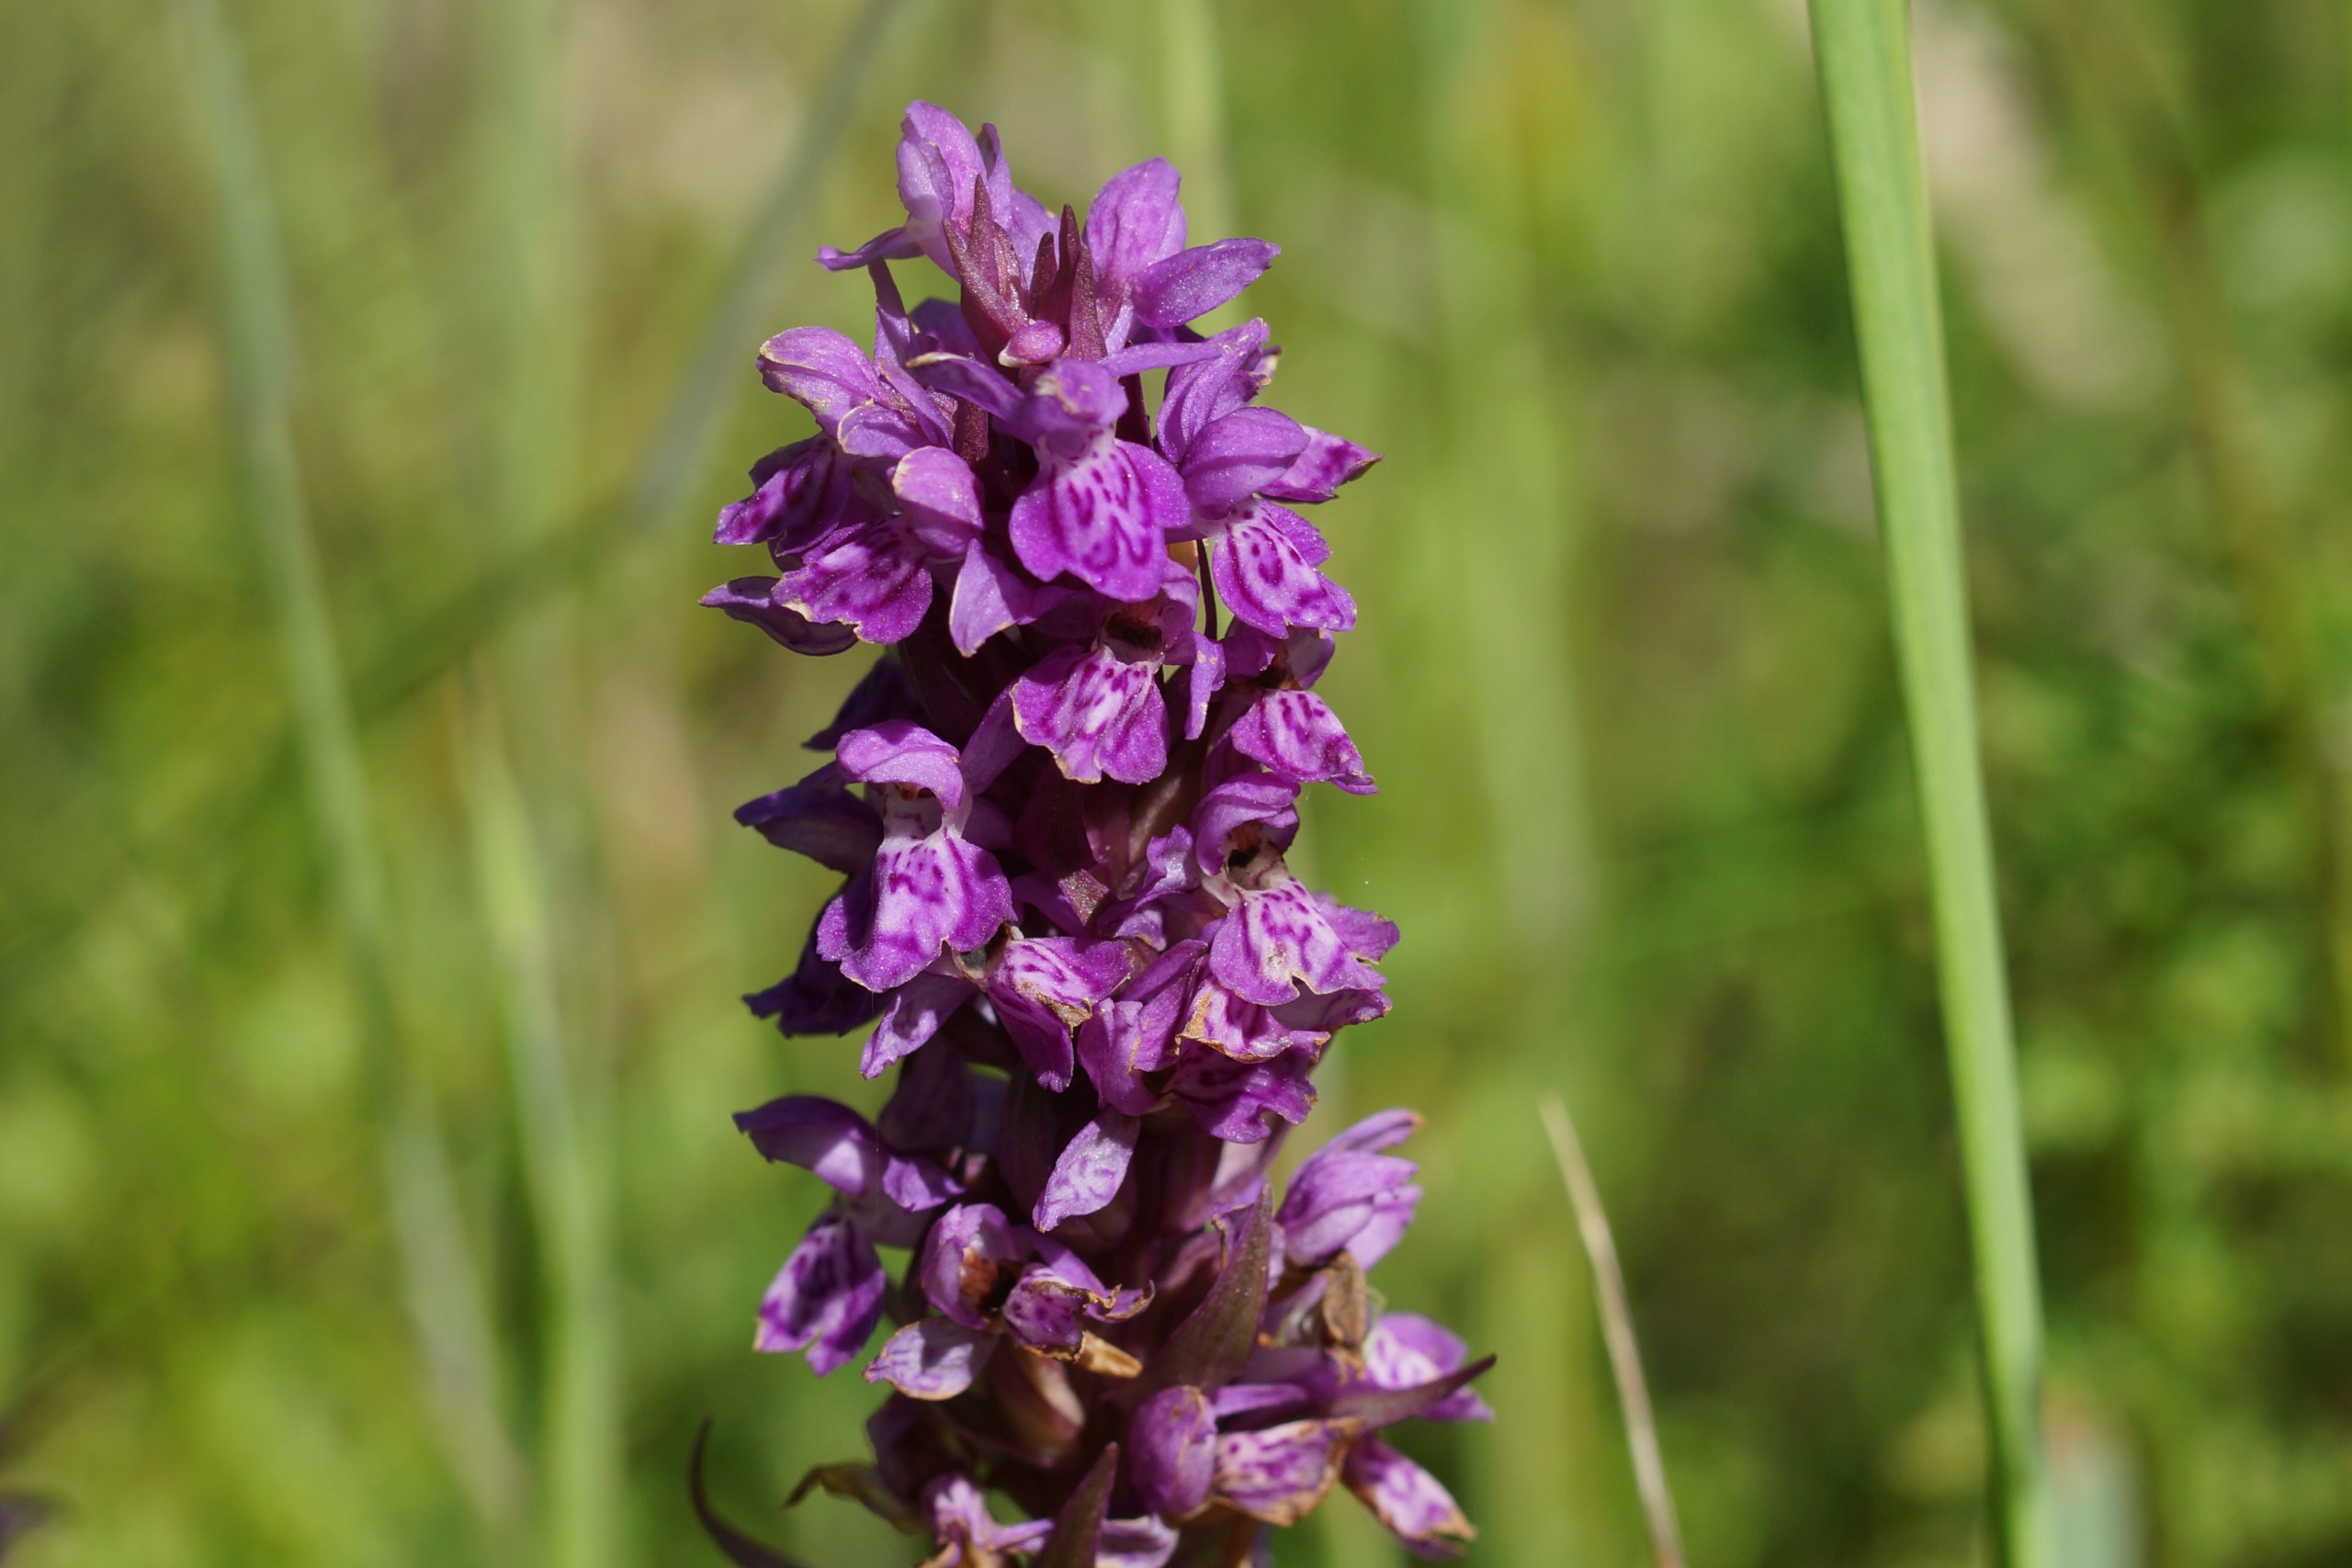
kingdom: Plantae
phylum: Tracheophyta
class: Liliopsida
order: Asparagales
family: Orchidaceae
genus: Dactylorhiza
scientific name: Dactylorhiza majalis
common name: Vendsyssel-gøgeurt
